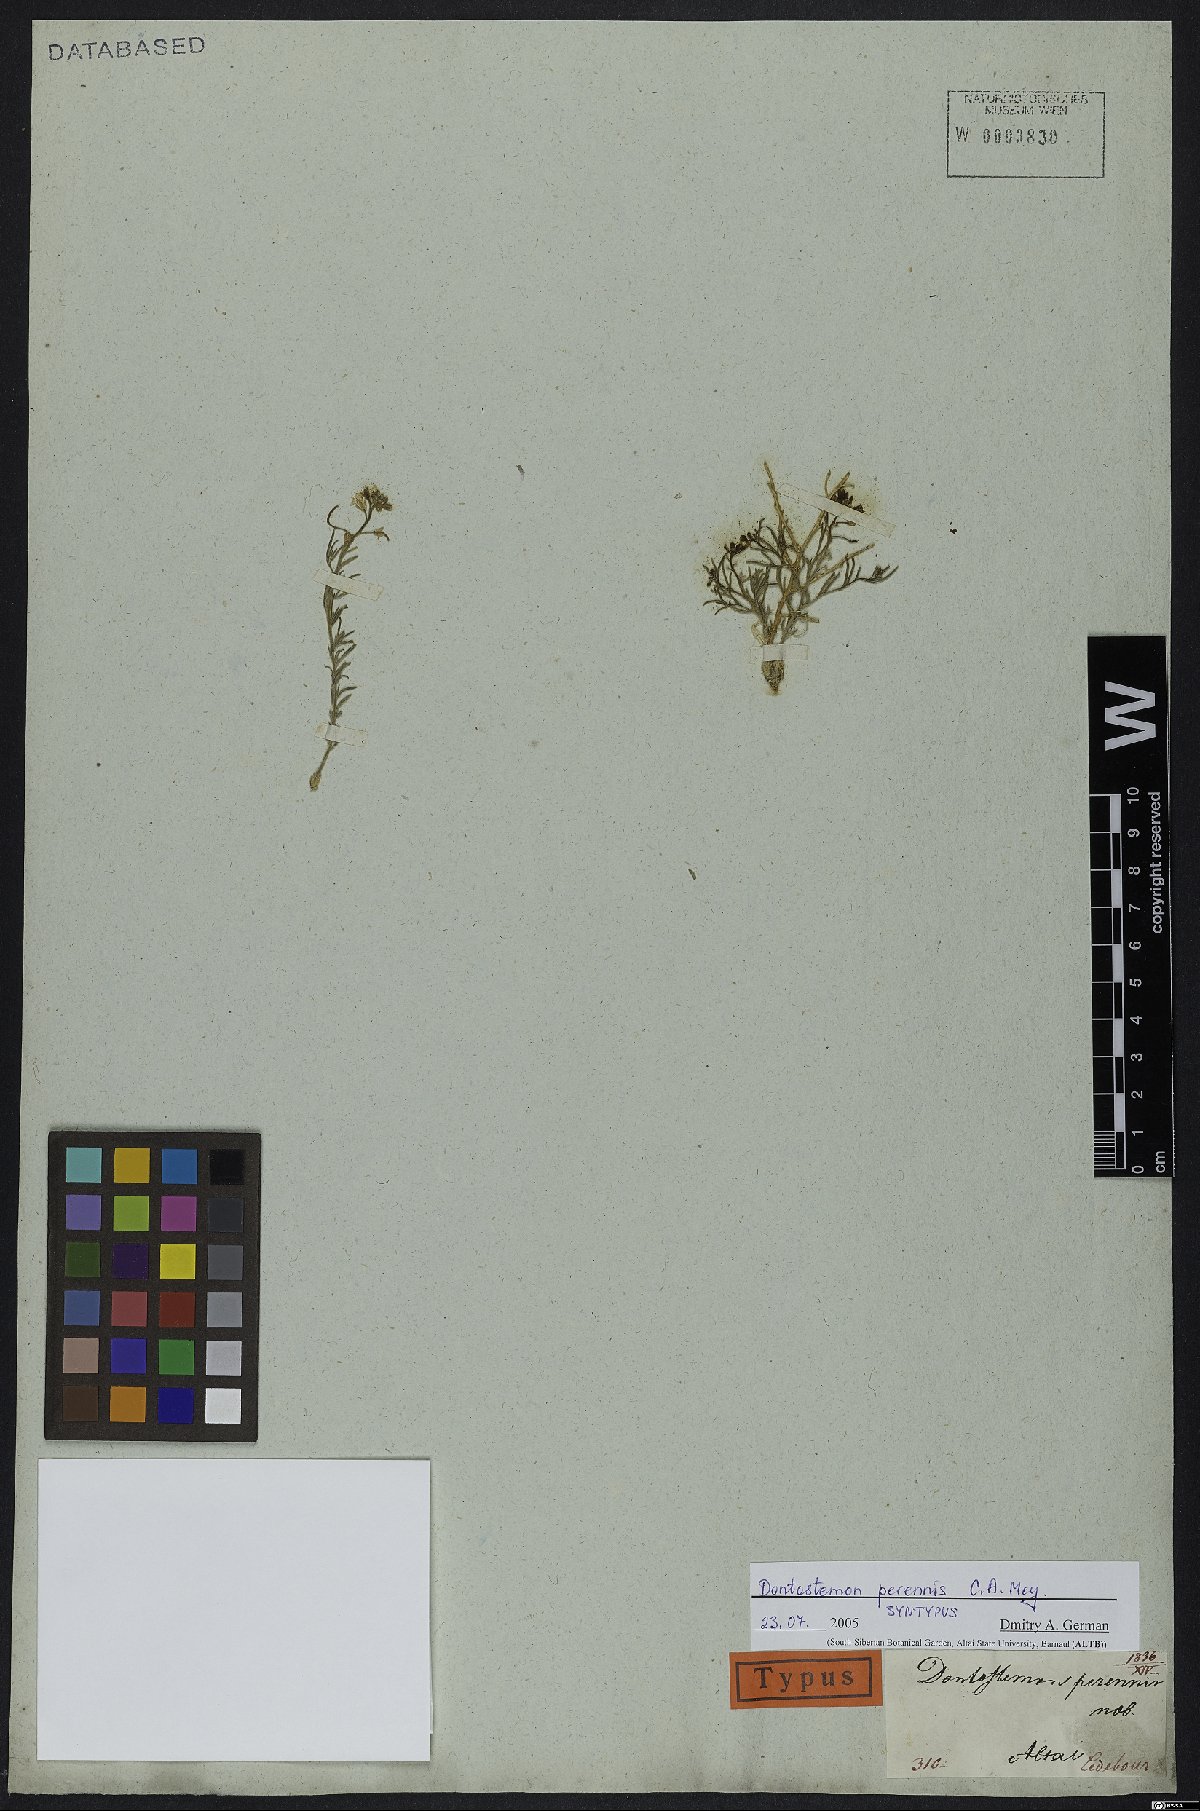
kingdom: Plantae
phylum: Tracheophyta
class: Magnoliopsida
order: Brassicales
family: Brassicaceae
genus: Dontostemon
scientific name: Dontostemon perennis
